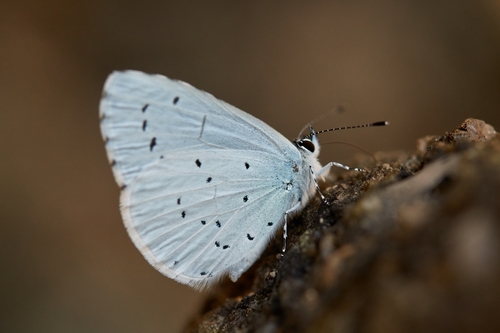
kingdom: Animalia
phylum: Arthropoda
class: Insecta
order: Lepidoptera
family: Lycaenidae
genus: Celastrina
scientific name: Celastrina argiolus
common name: Holly blue
